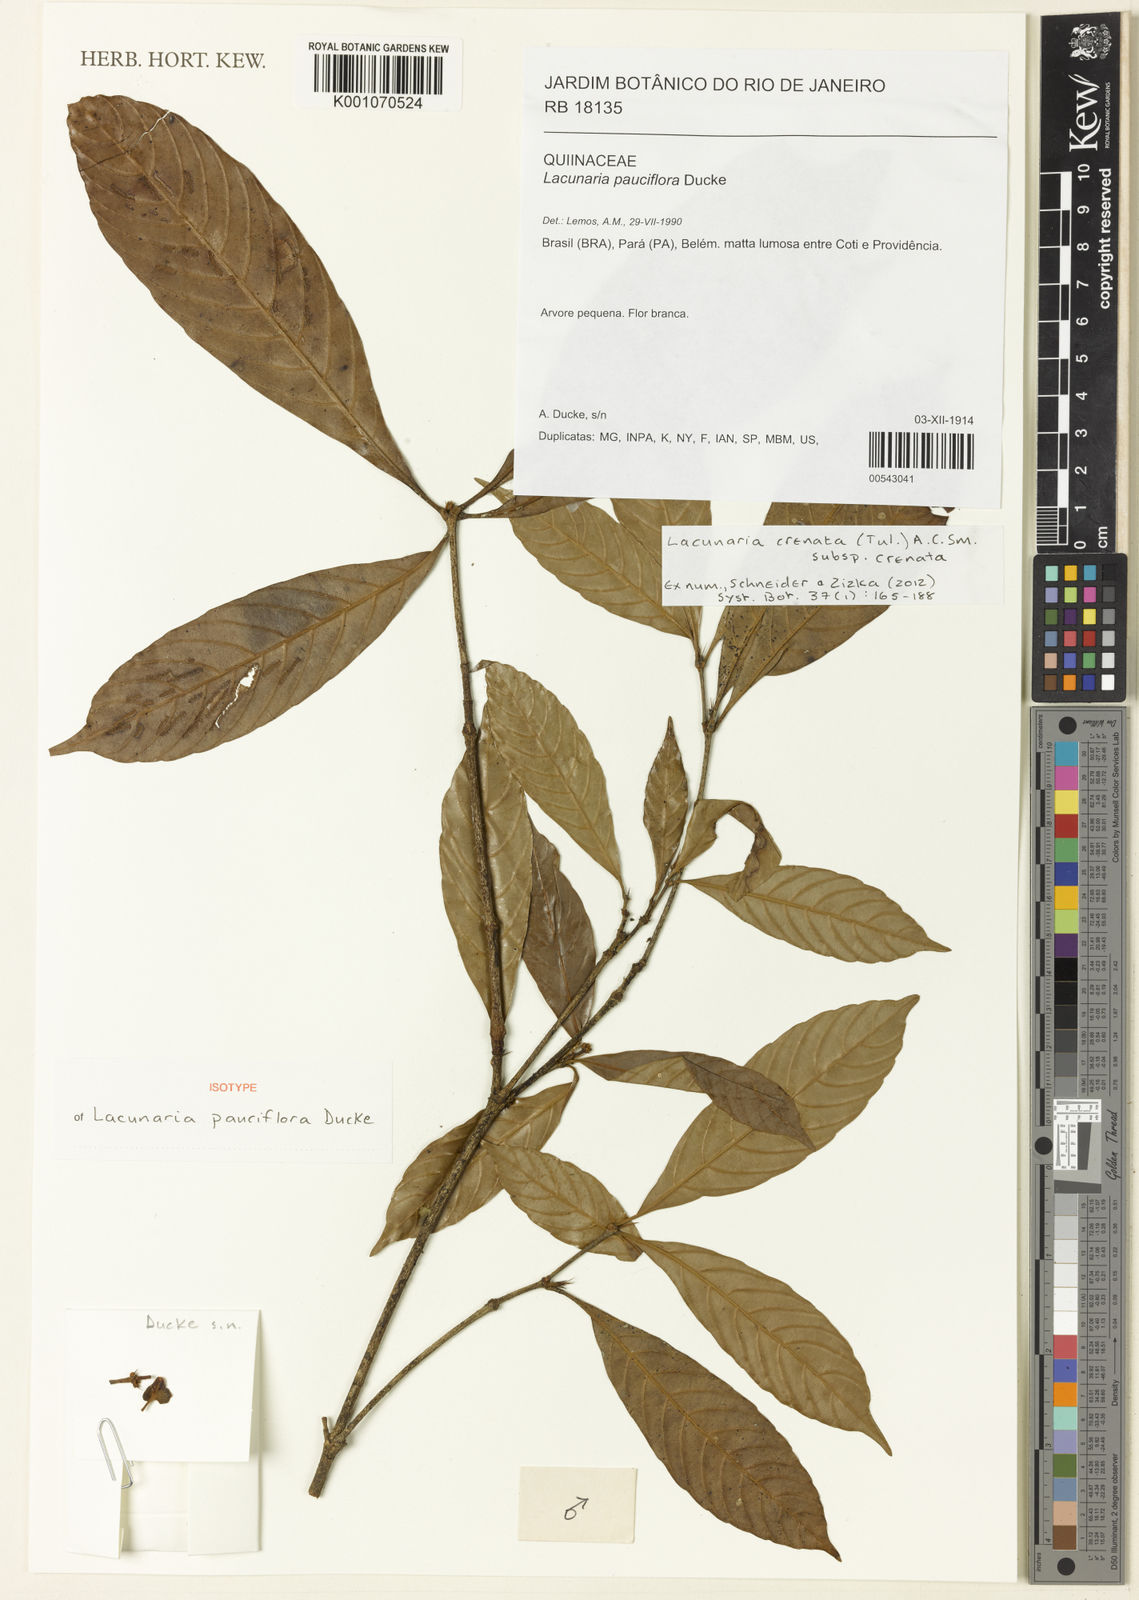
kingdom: Plantae
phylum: Tracheophyta
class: Magnoliopsida
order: Malpighiales
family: Quiinaceae
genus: Lacunaria
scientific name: Lacunaria crenata
